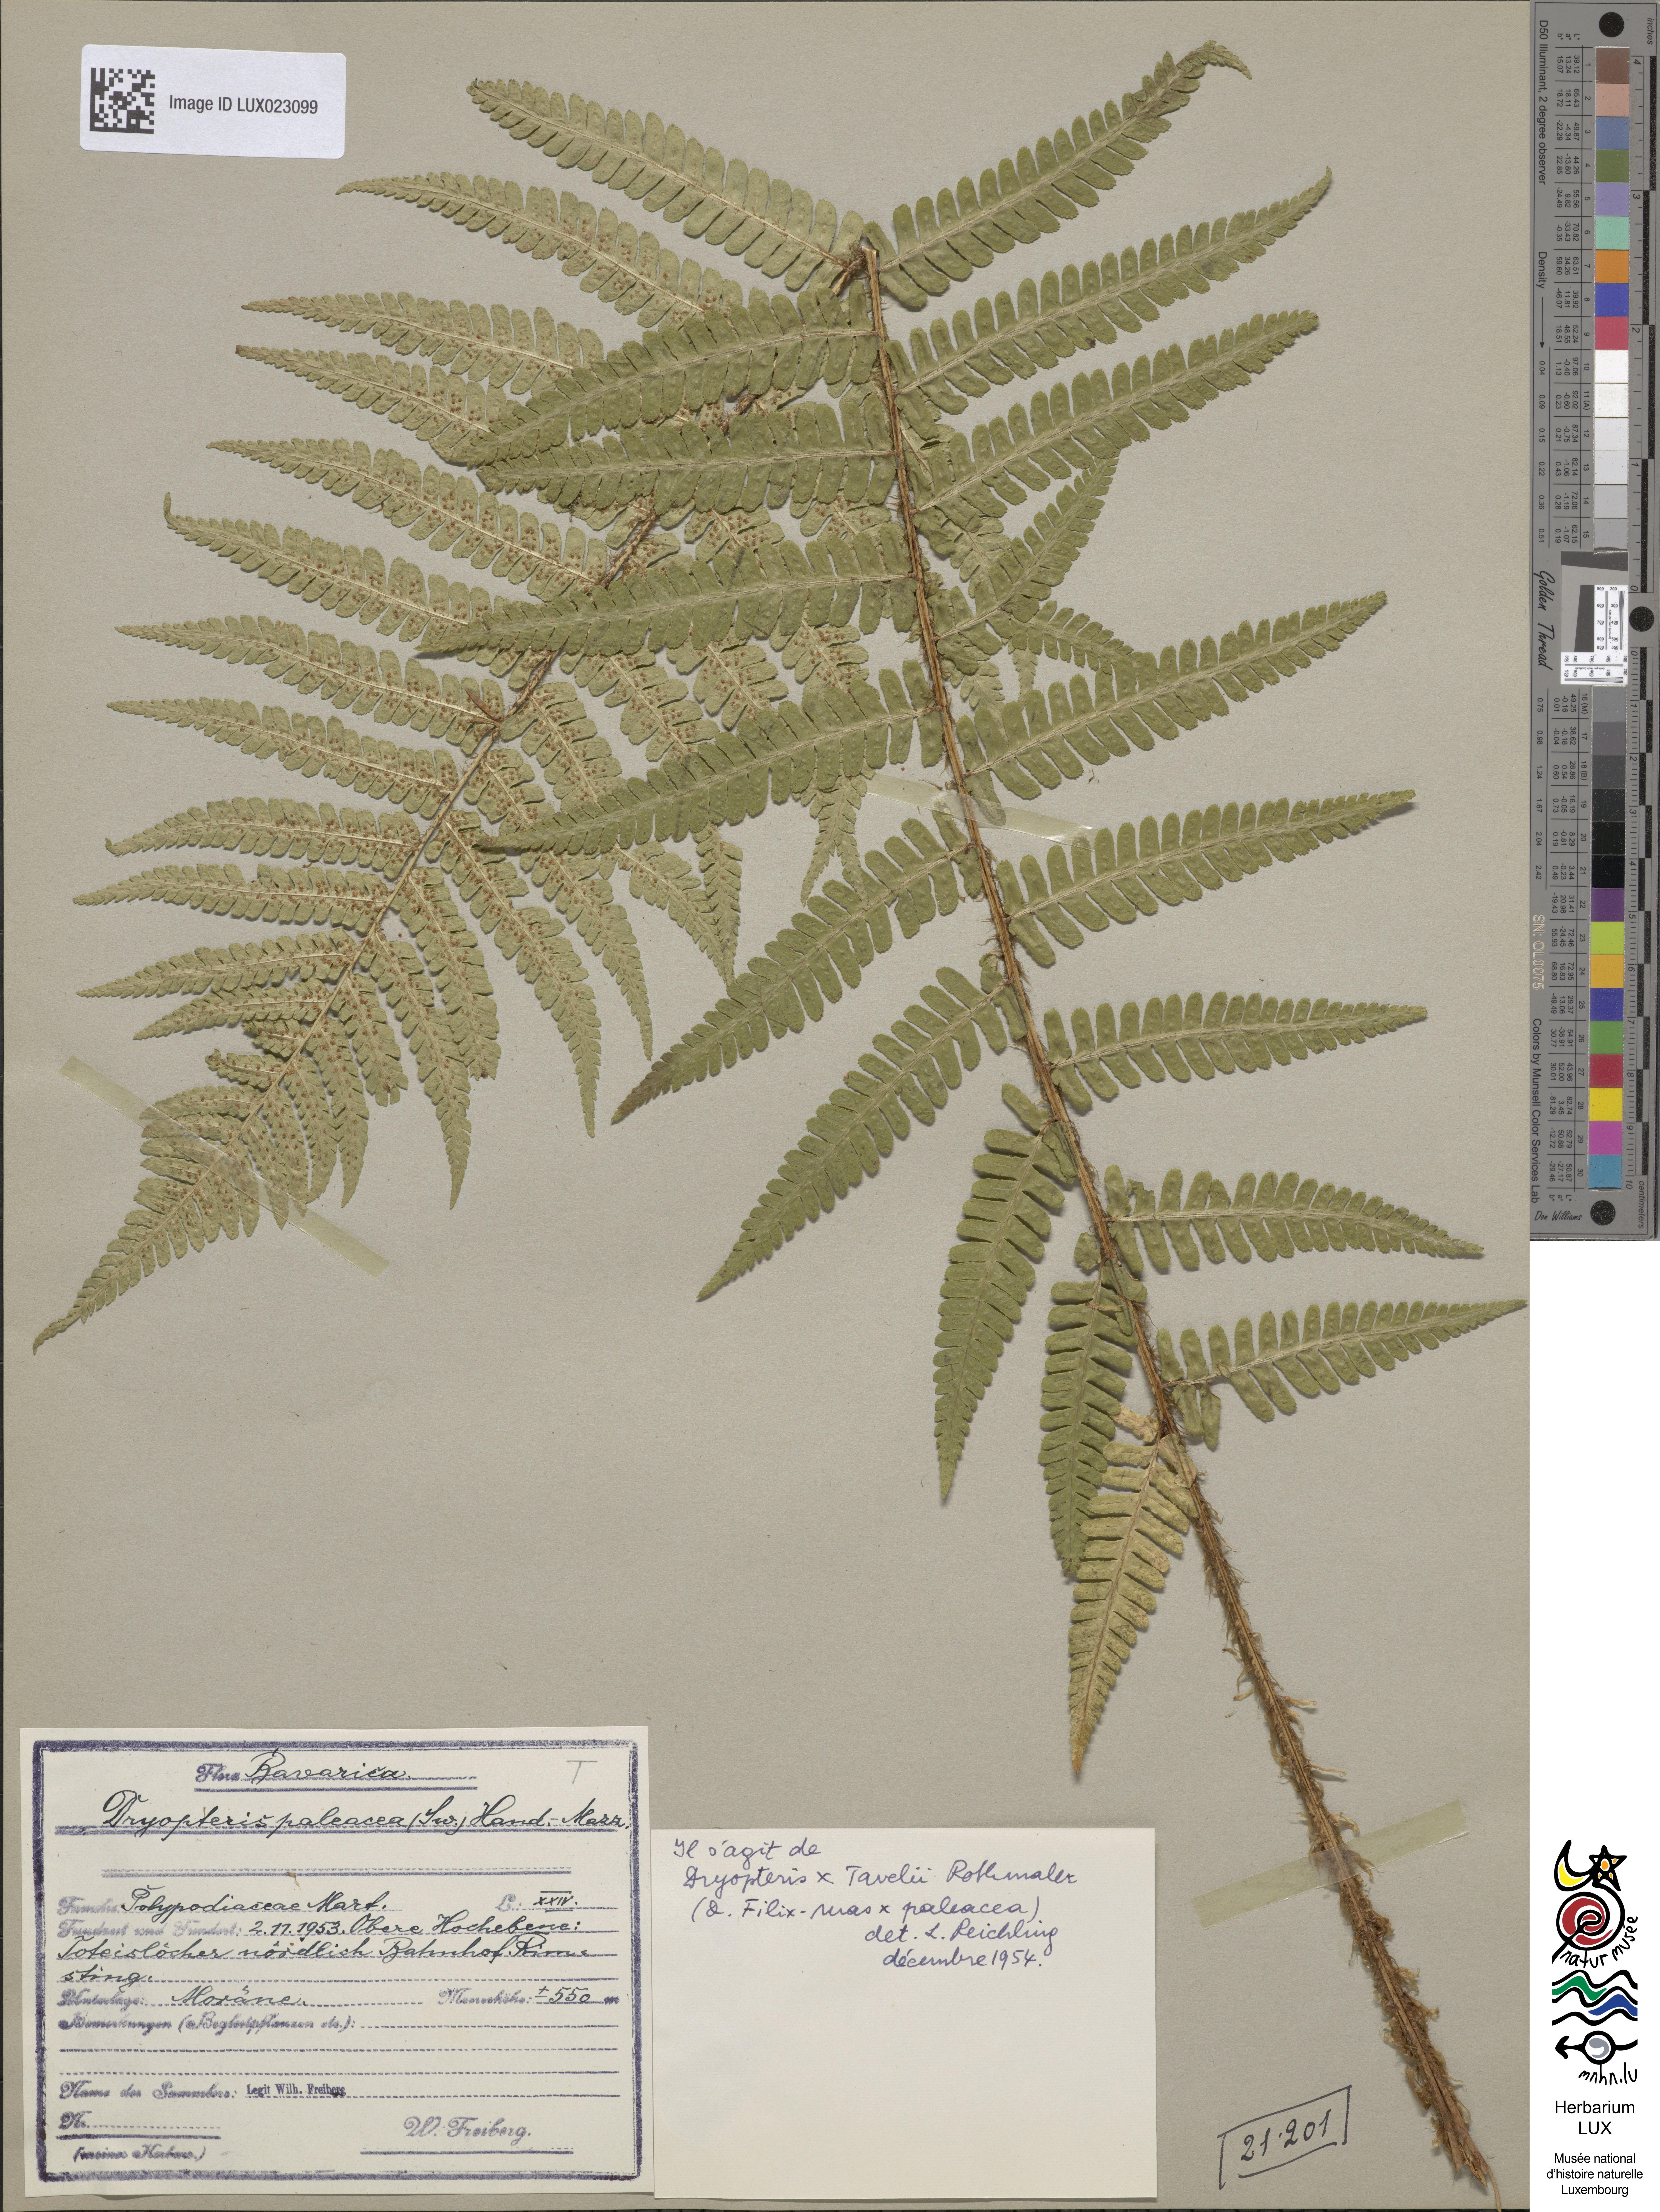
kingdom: Plantae
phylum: Tracheophyta
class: Polypodiopsida
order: Polypodiales
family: Dryopteridaceae
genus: Dryopteris
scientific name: Dryopteris borreri
